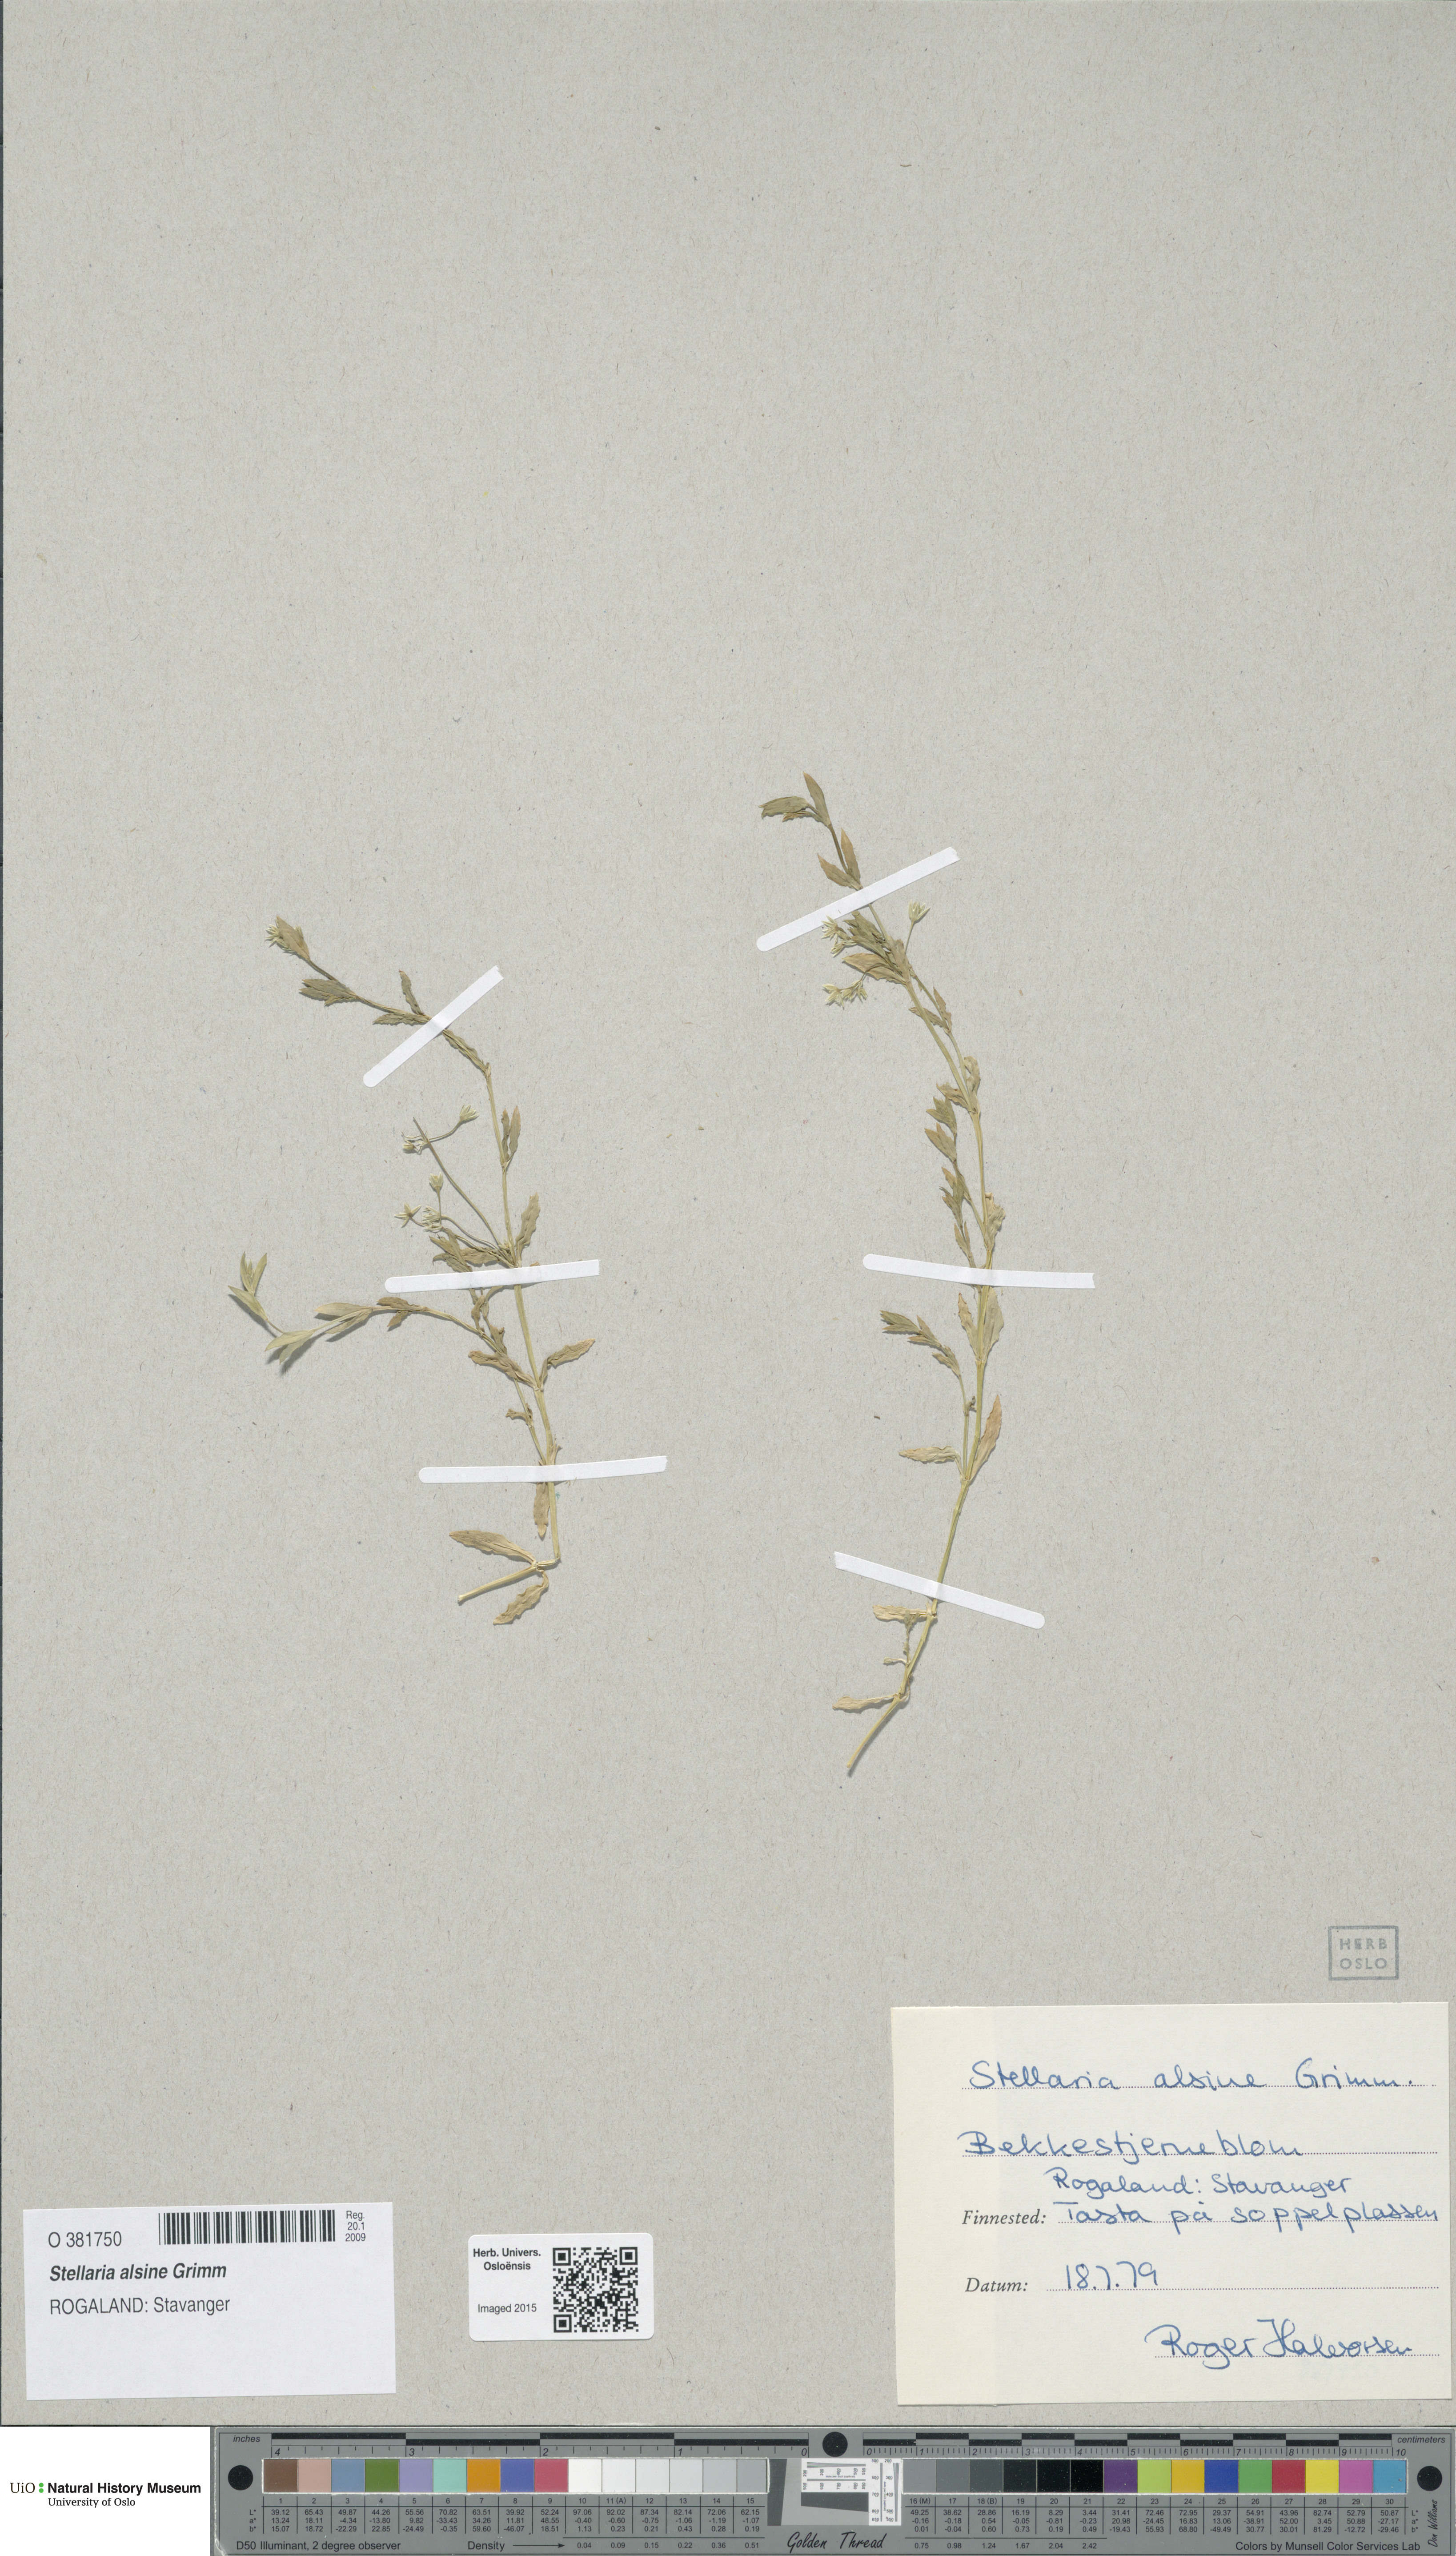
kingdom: Plantae
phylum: Tracheophyta
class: Magnoliopsida
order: Caryophyllales
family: Caryophyllaceae
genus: Stellaria
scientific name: Stellaria alsine
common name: Bog stitchwort
